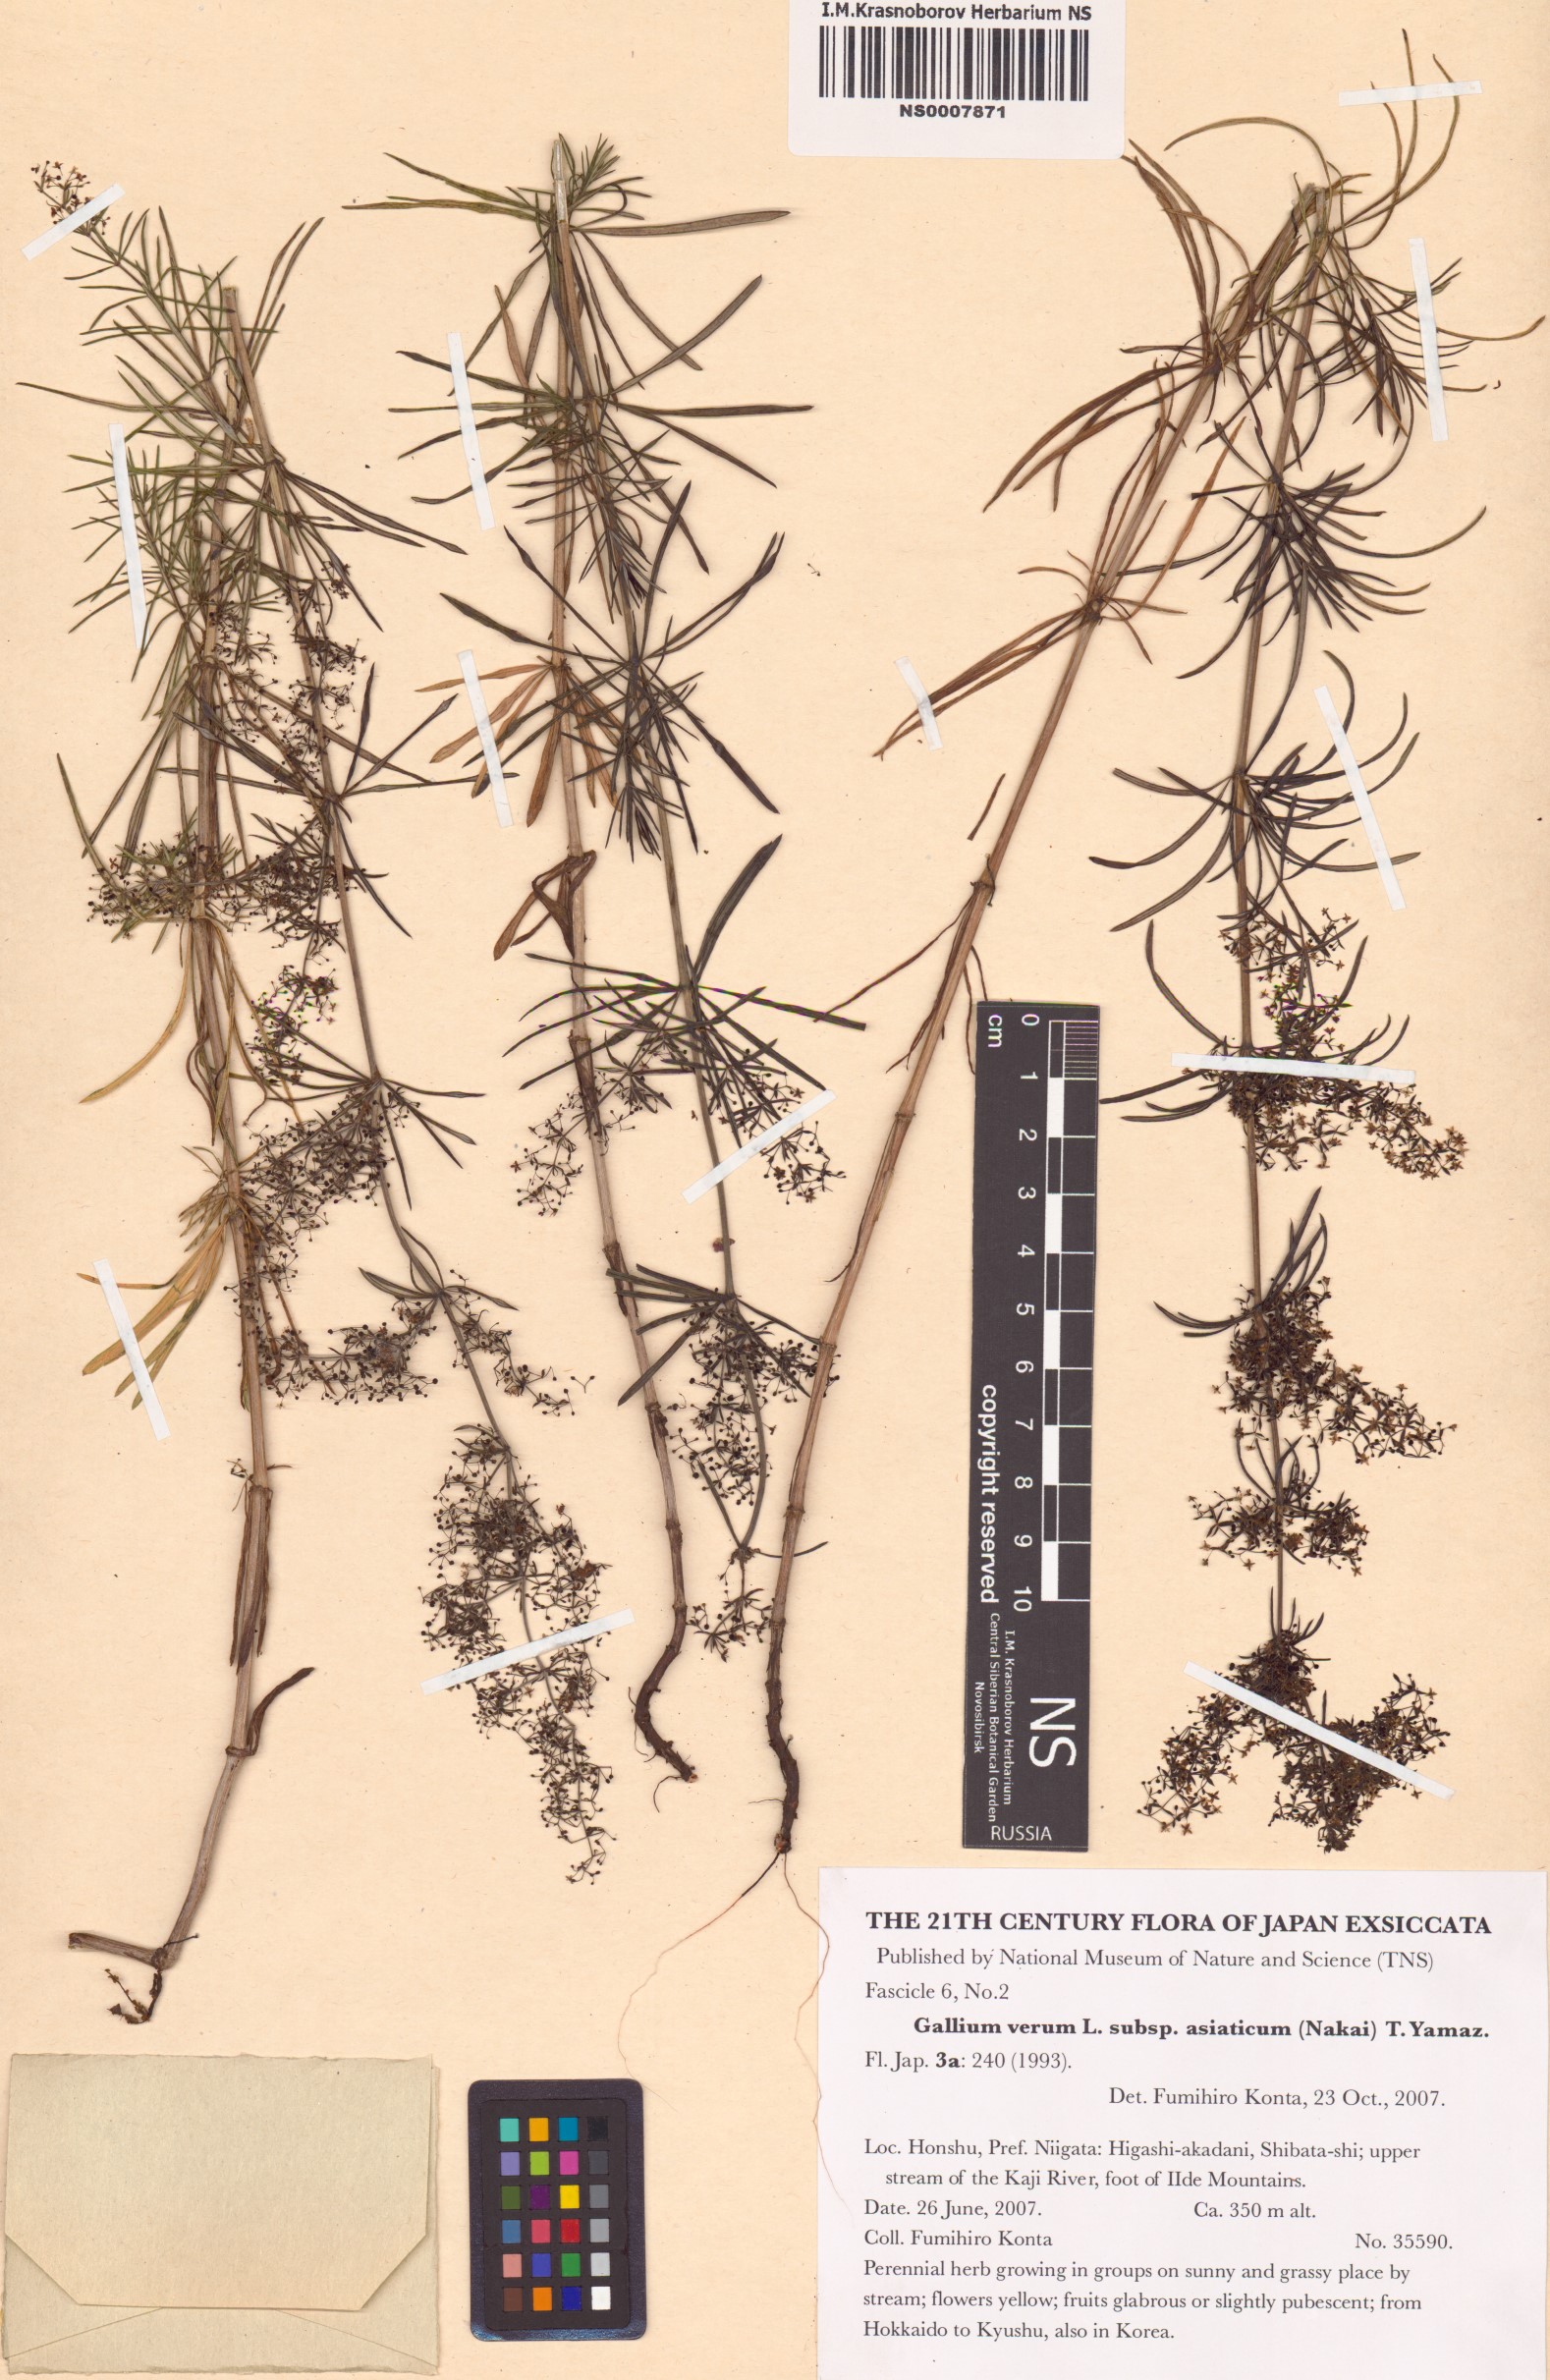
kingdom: Plantae
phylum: Tracheophyta
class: Magnoliopsida
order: Gentianales
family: Rubiaceae
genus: Galium
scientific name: Galium verum
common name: Lady's bedstraw
